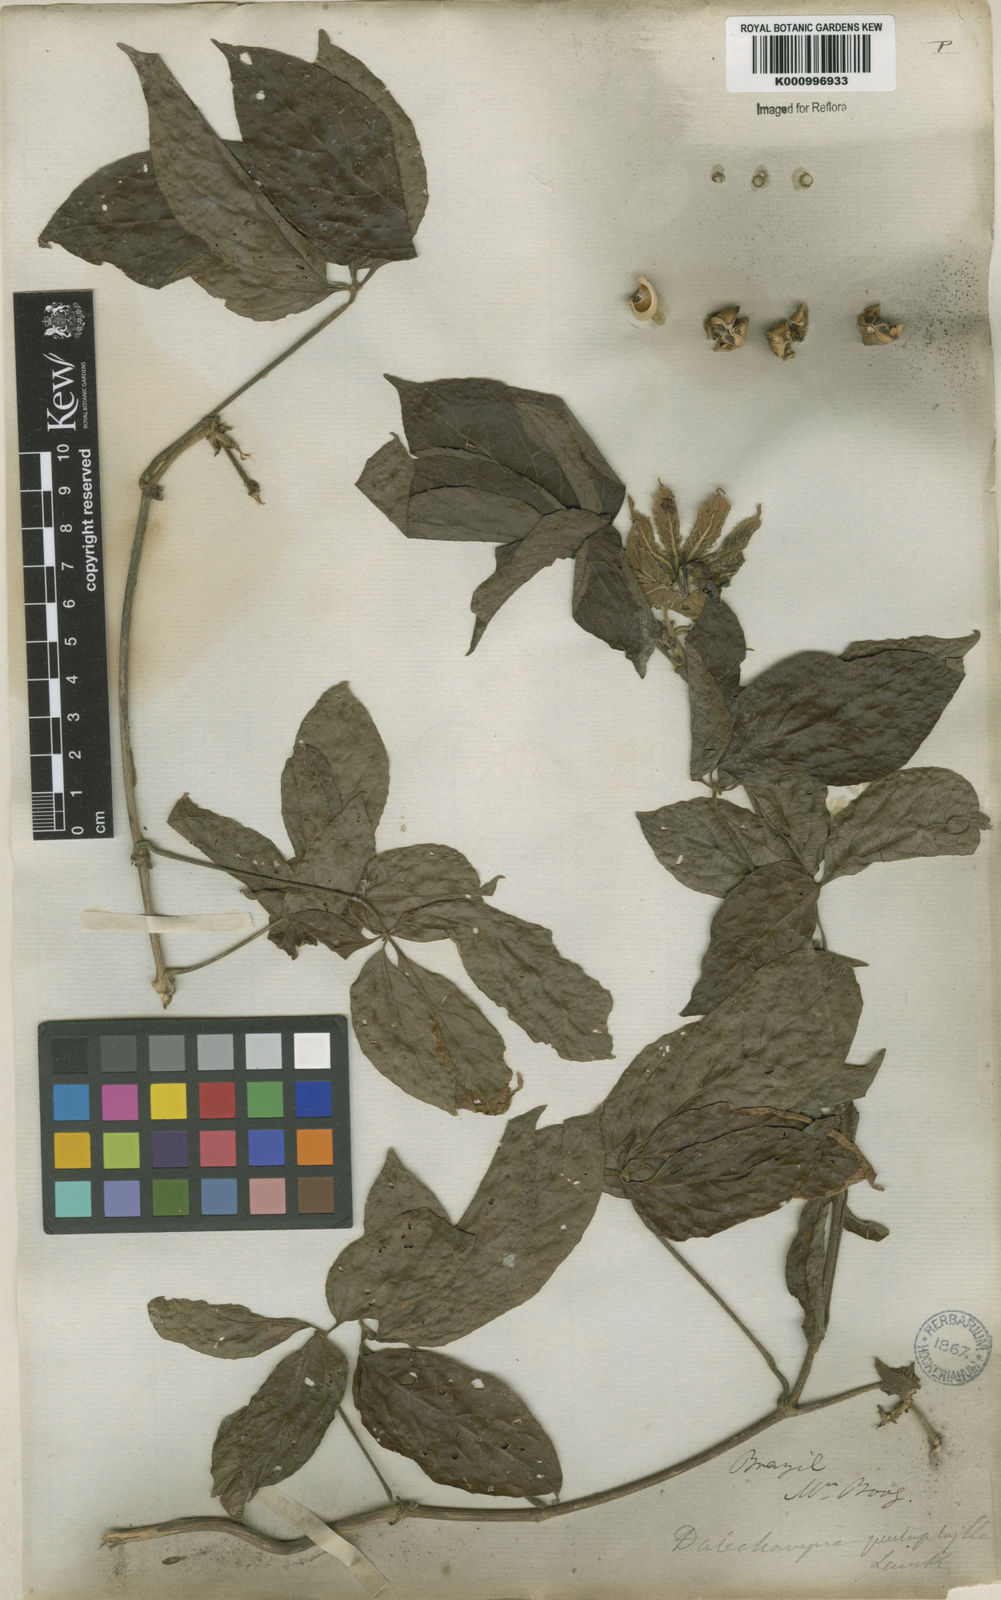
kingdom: Plantae
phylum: Tracheophyta
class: Magnoliopsida
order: Malpighiales
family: Euphorbiaceae
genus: Dalechampia
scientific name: Dalechampia pentaphylla
